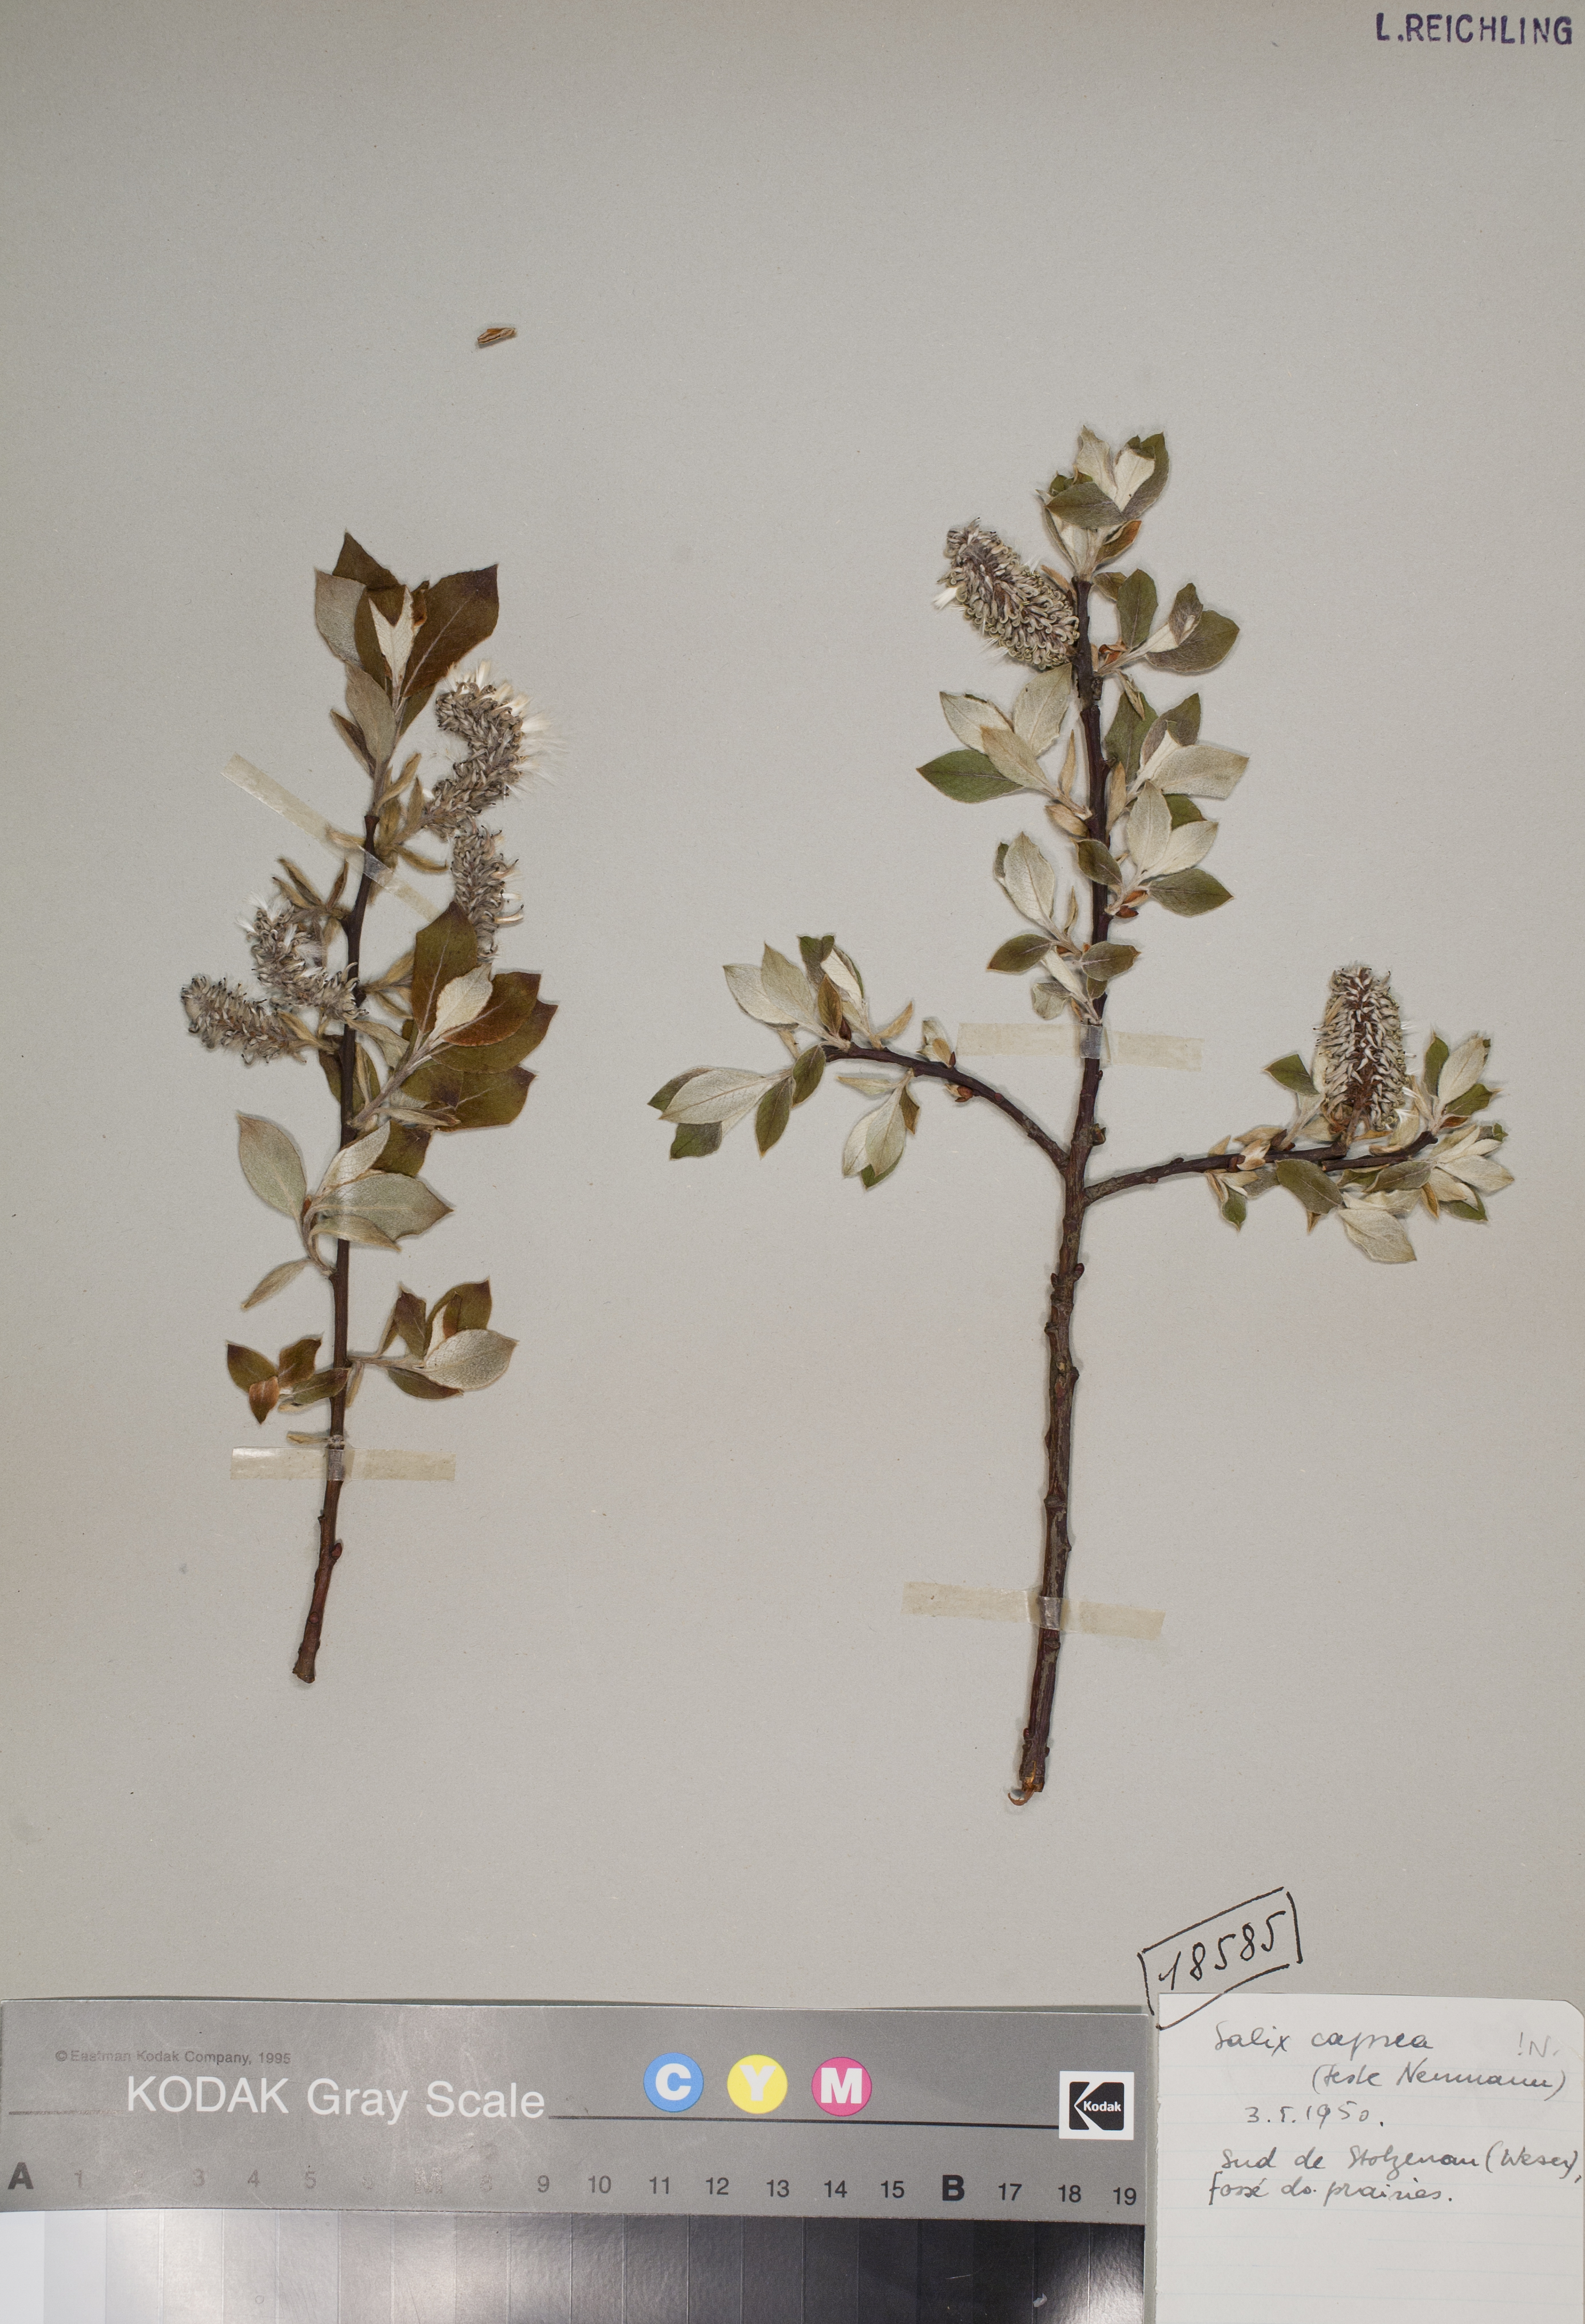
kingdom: Plantae
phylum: Tracheophyta
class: Magnoliopsida
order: Malpighiales
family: Salicaceae
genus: Salix
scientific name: Salix caprea
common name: Goat willow
